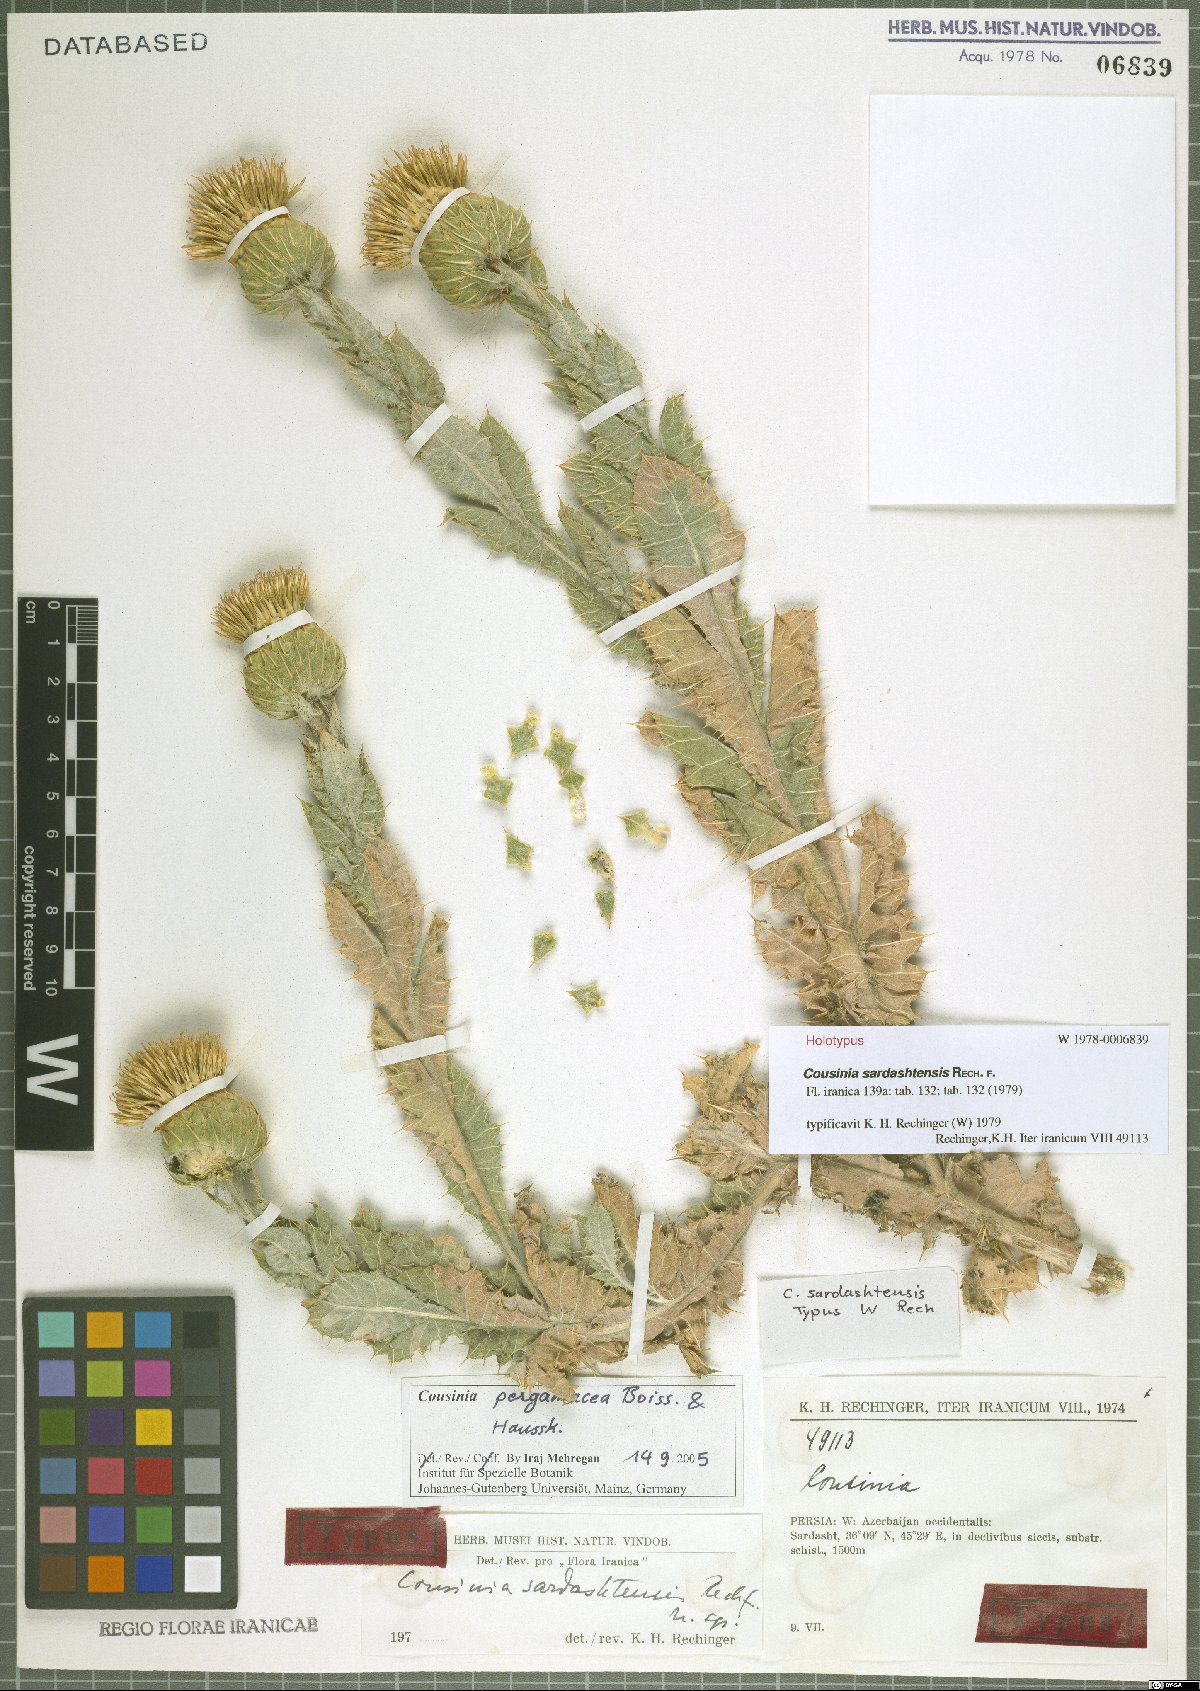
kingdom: Plantae
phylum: Tracheophyta
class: Magnoliopsida
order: Asterales
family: Asteraceae
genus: Cousinia
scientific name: Cousinia pergamacea
